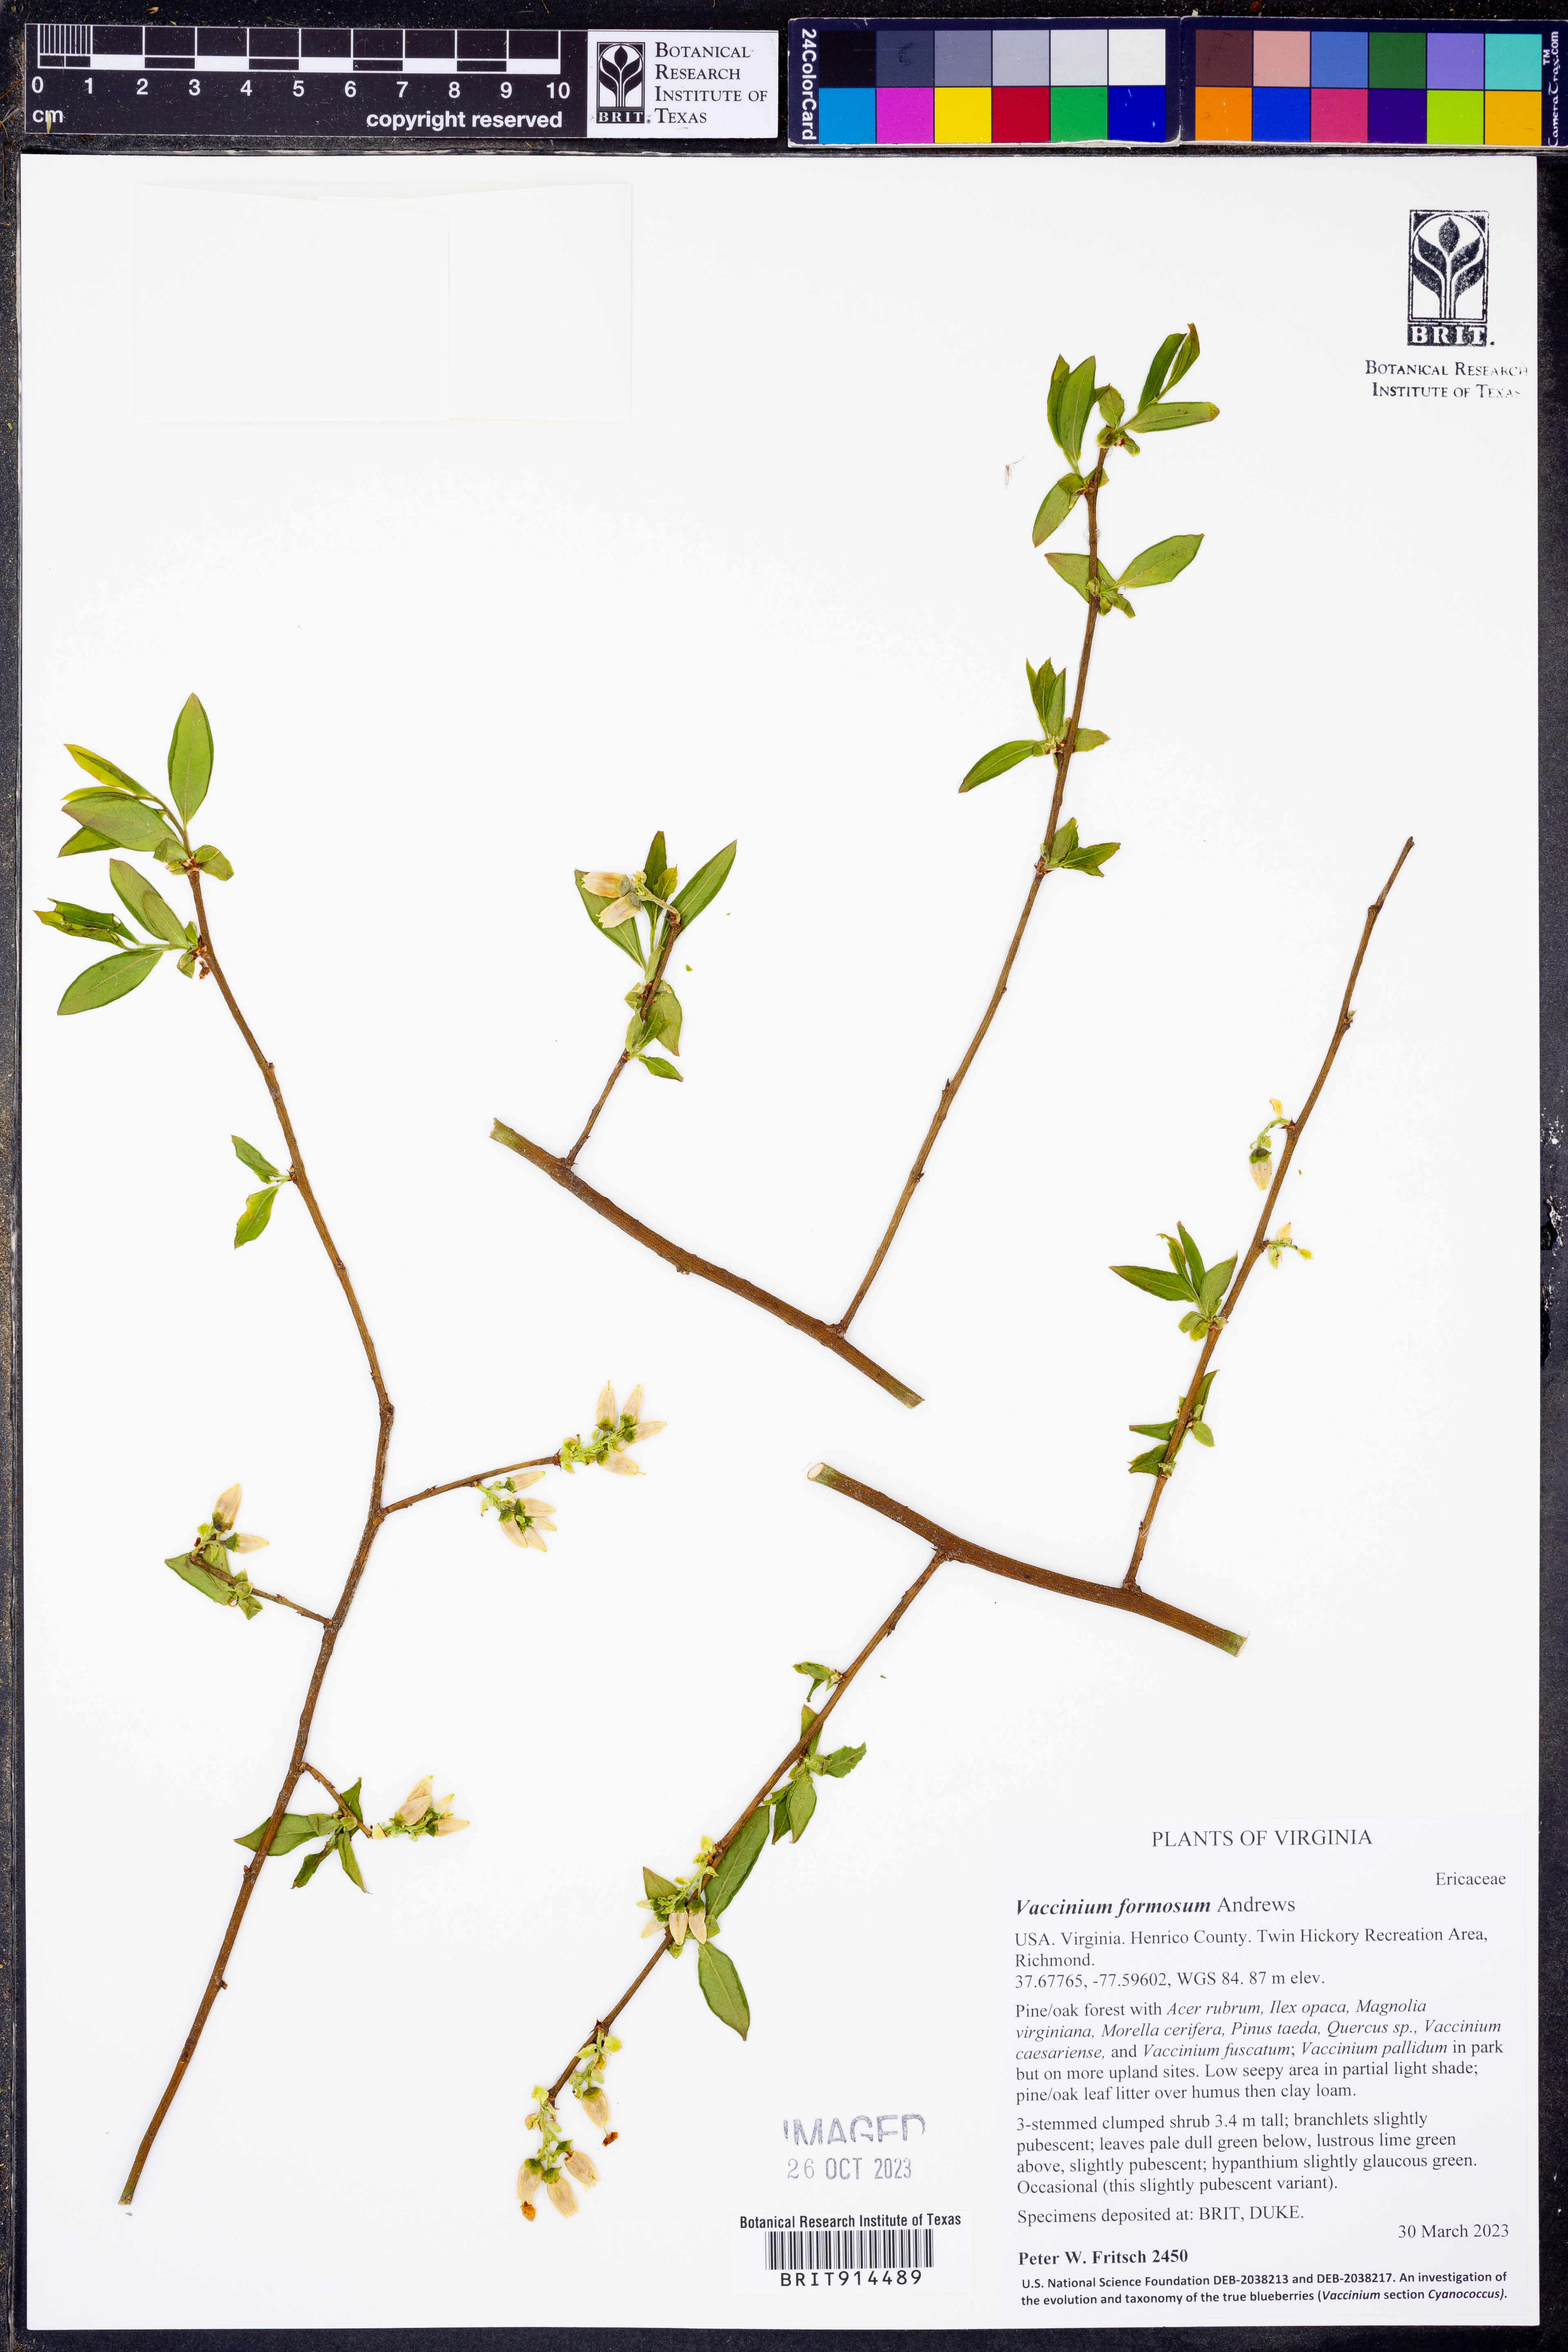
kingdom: Plantae
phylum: Tracheophyta
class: Magnoliopsida
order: Ericales
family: Ericaceae
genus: Vaccinium
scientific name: Vaccinium corymbosum
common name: Blueberry
